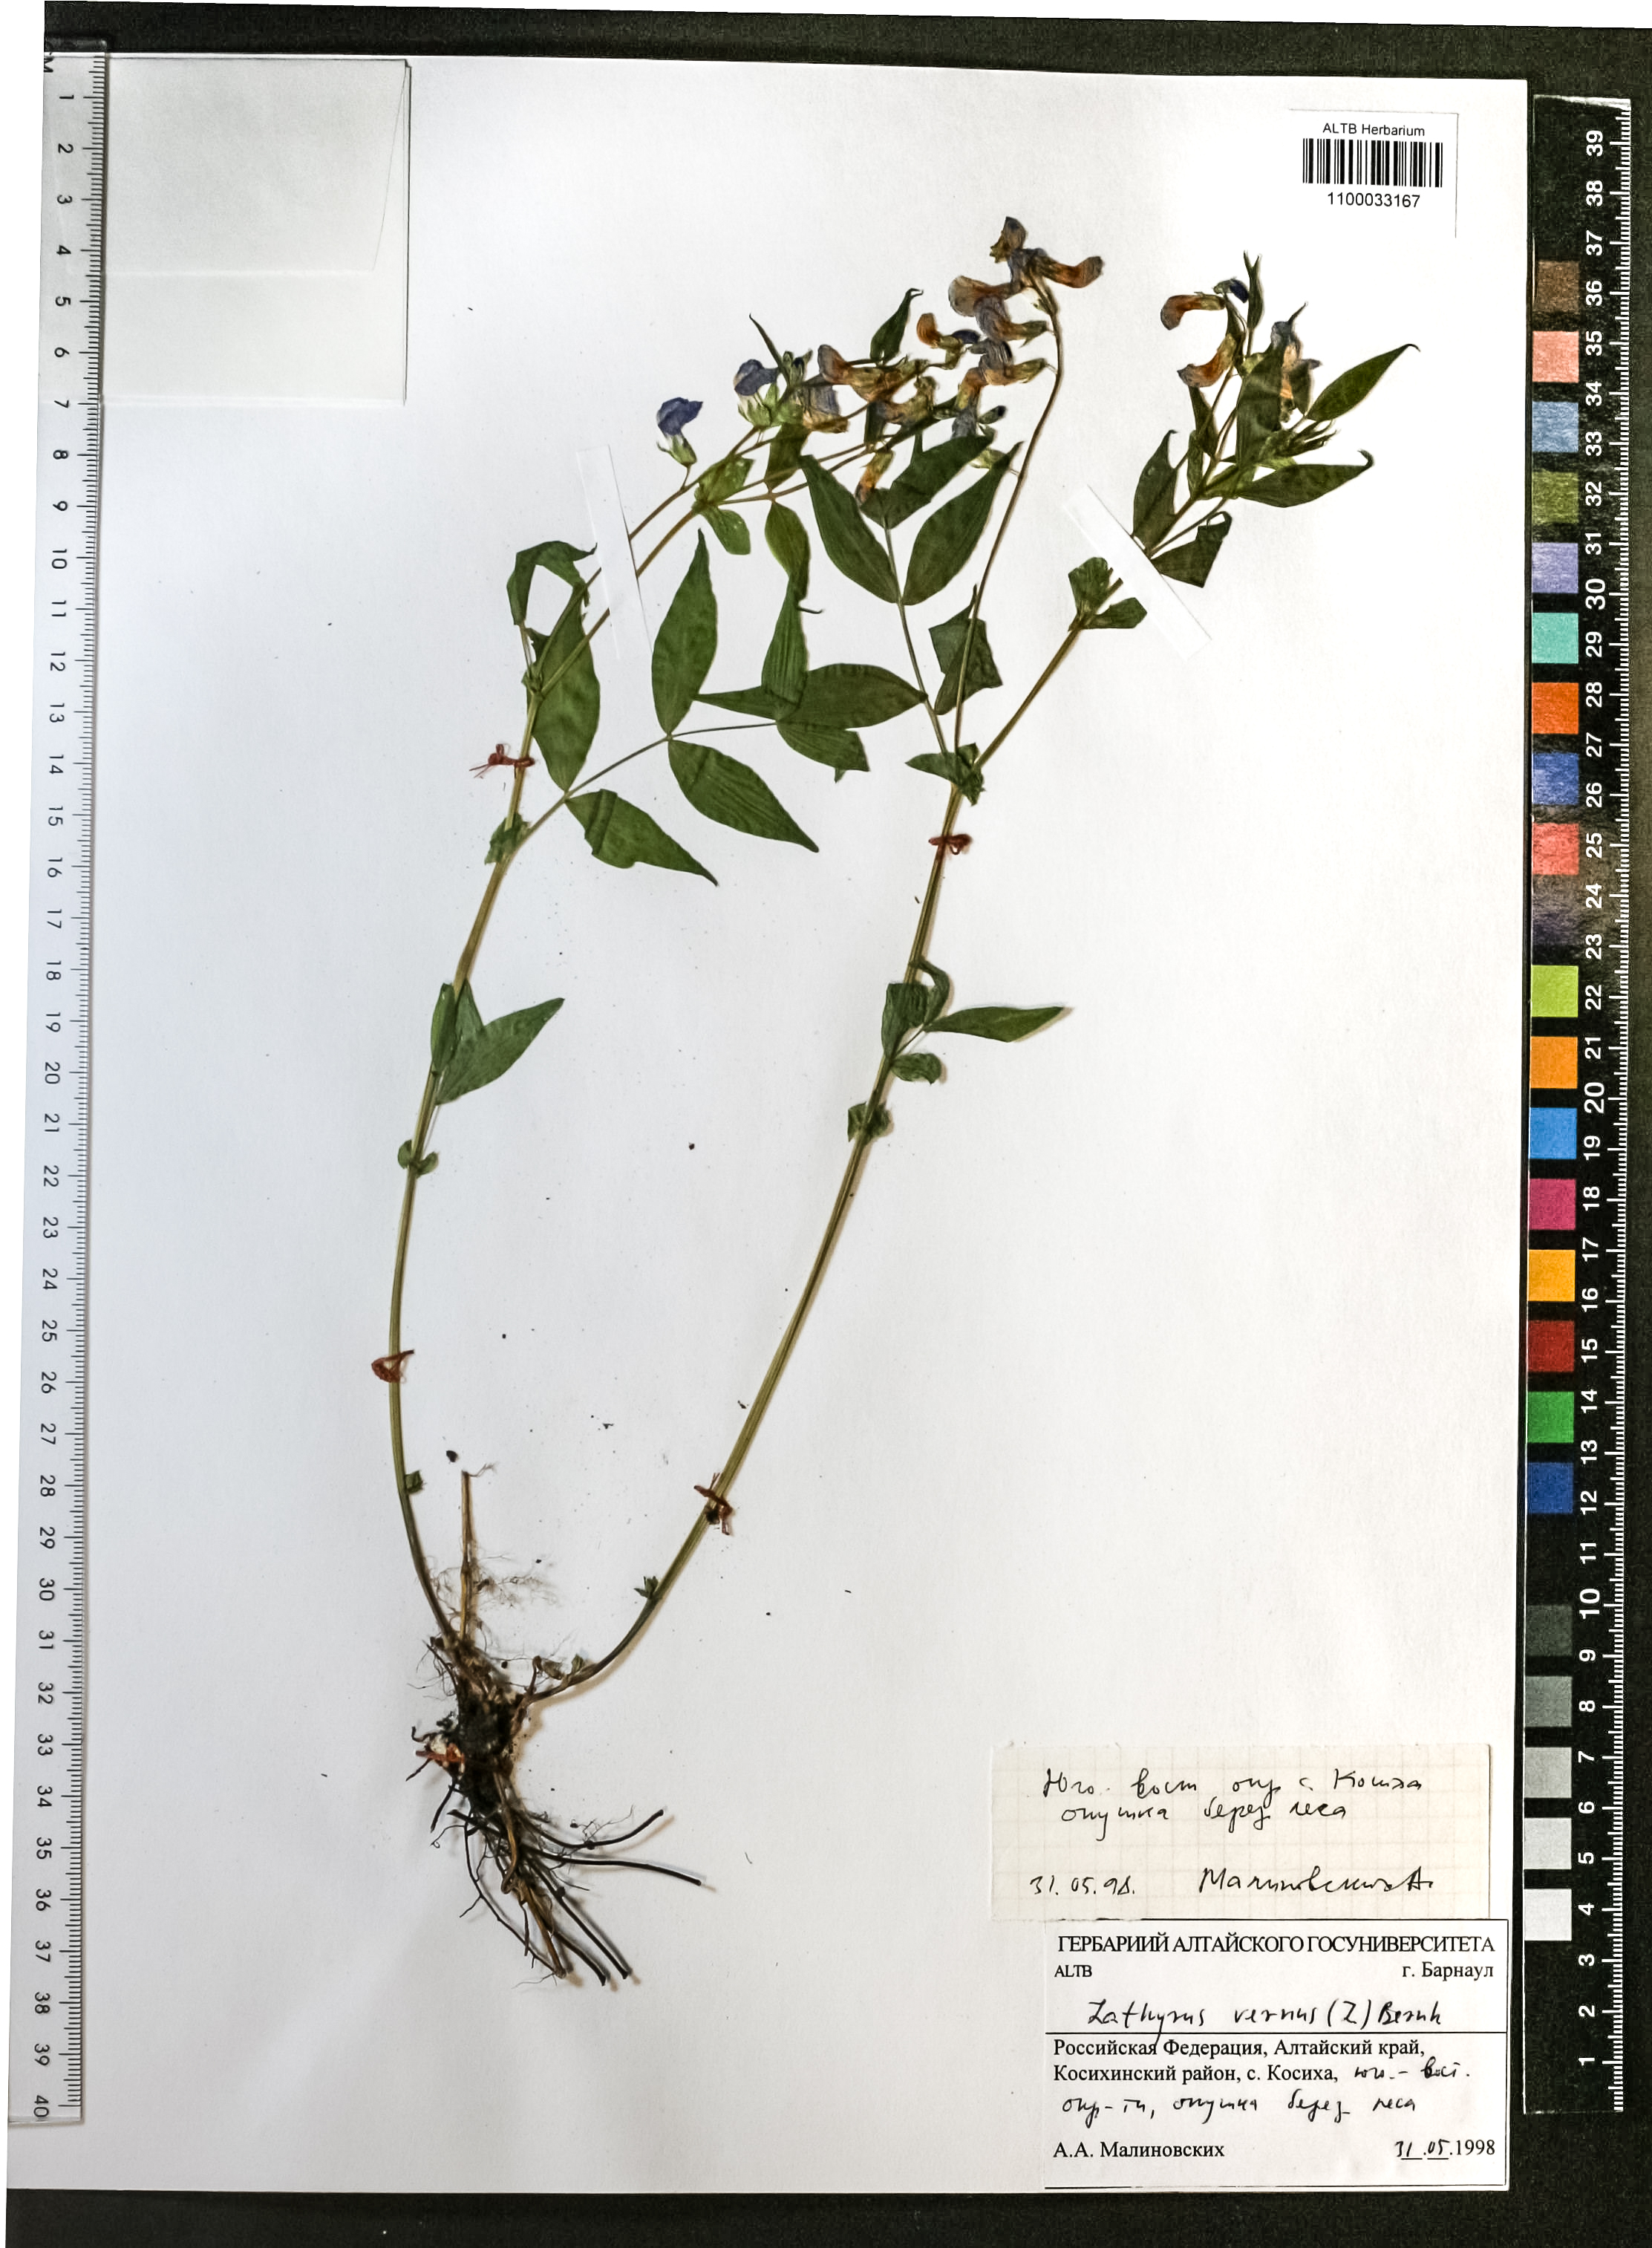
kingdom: Plantae
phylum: Tracheophyta
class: Magnoliopsida
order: Fabales
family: Fabaceae
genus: Lathyrus
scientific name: Lathyrus vernus
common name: Spring pea
